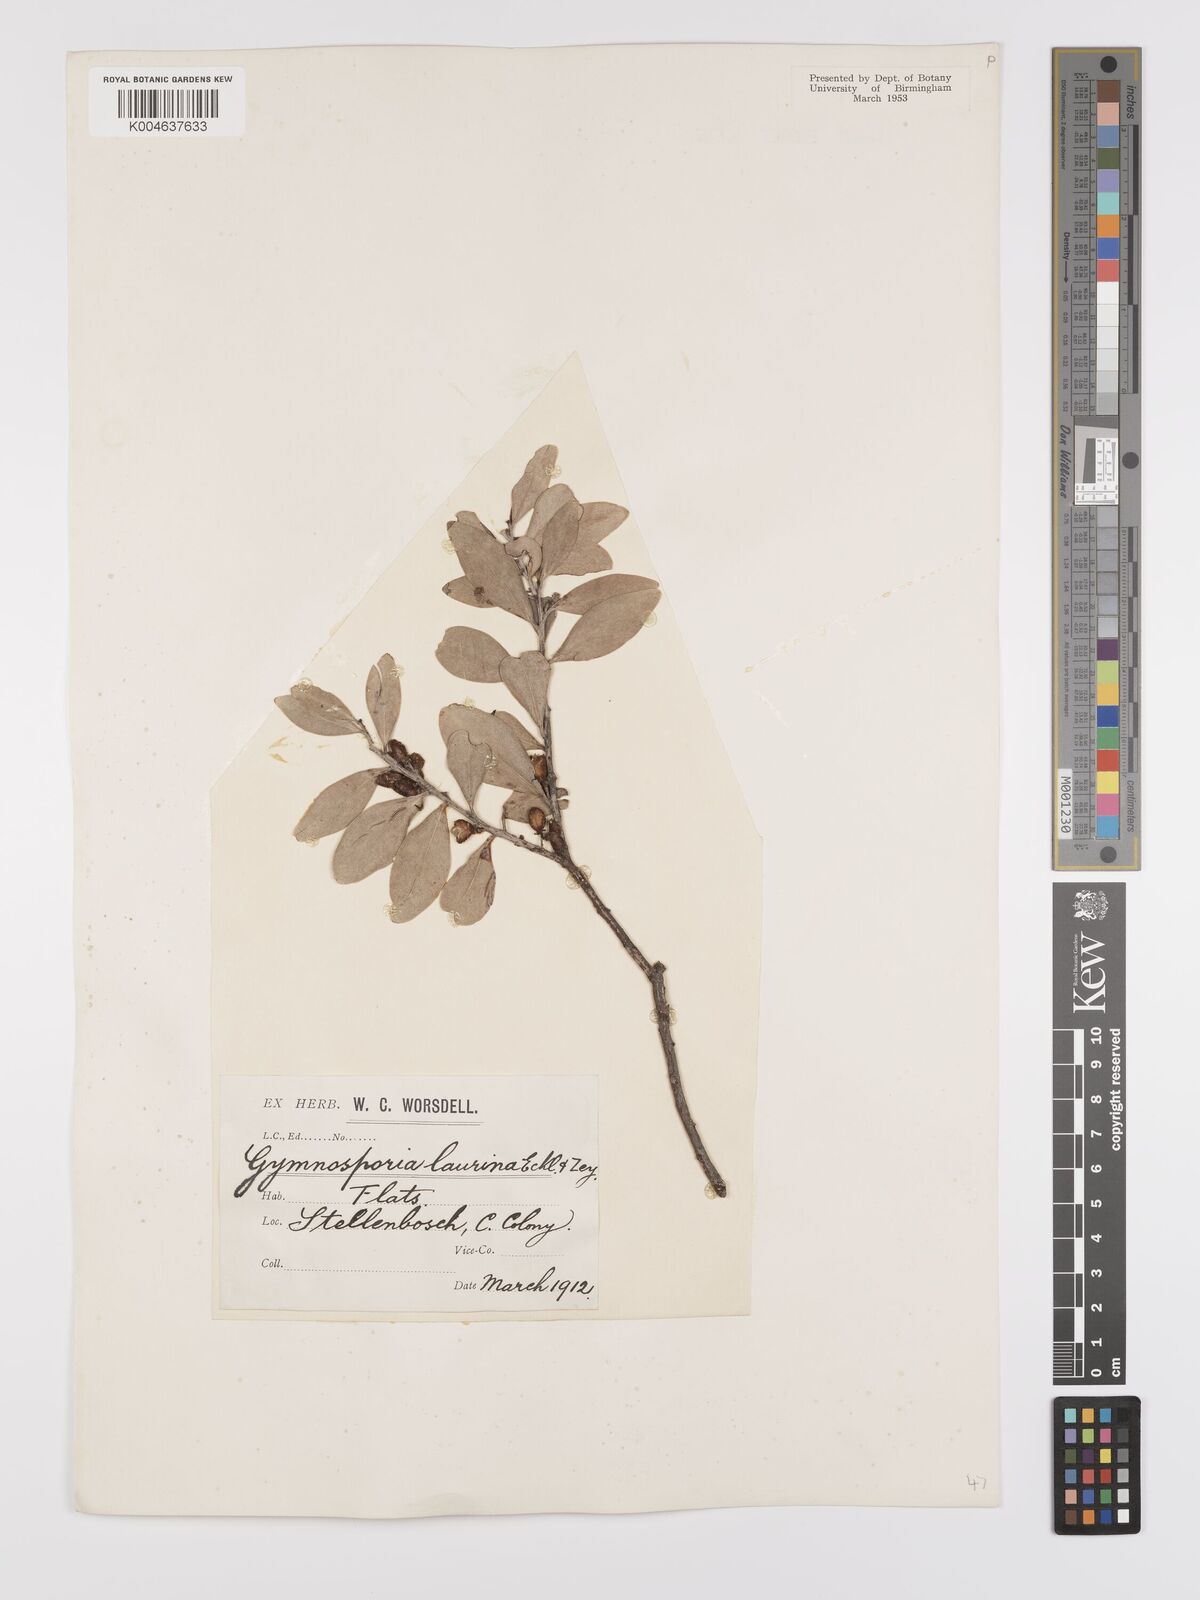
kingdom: Plantae
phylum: Tracheophyta
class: Magnoliopsida
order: Celastrales
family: Celastraceae
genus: Gymnosporia
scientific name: Gymnosporia laurina
